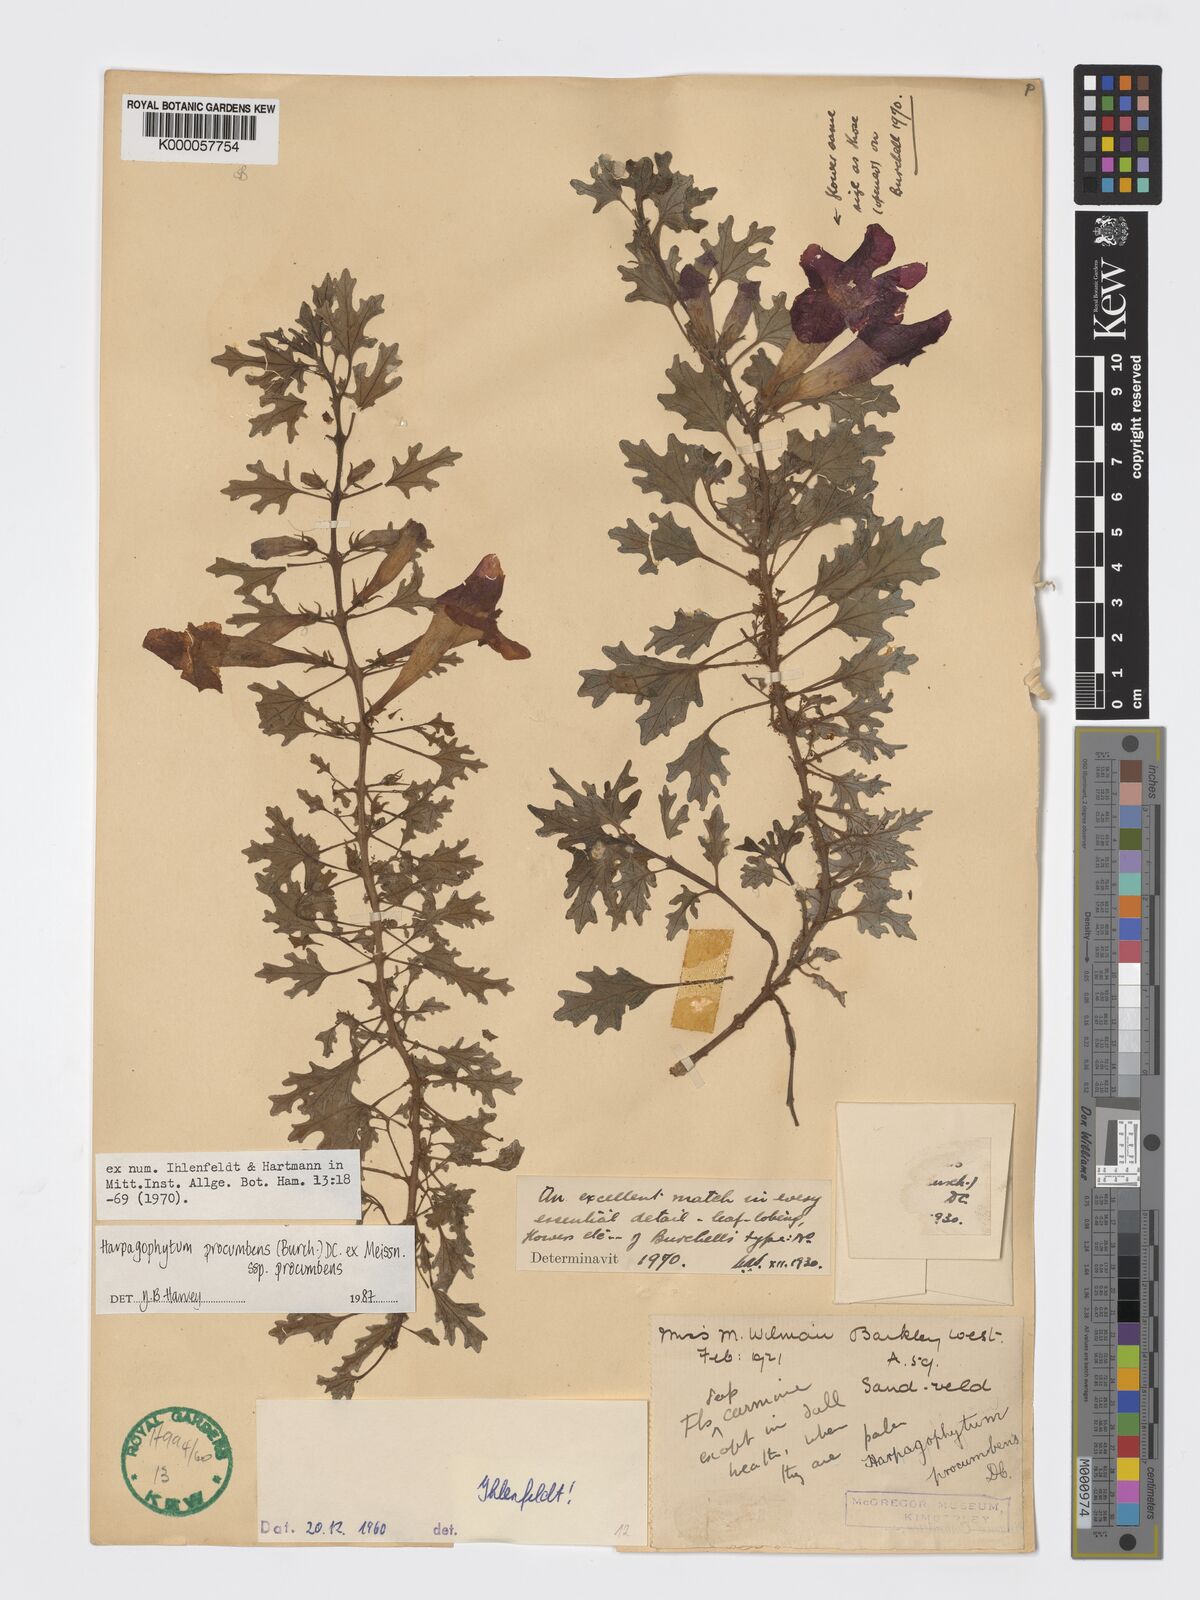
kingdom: Plantae
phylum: Tracheophyta
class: Magnoliopsida
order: Lamiales
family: Pedaliaceae
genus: Harpagophytum
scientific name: Harpagophytum procumbens
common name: Grappleplant
